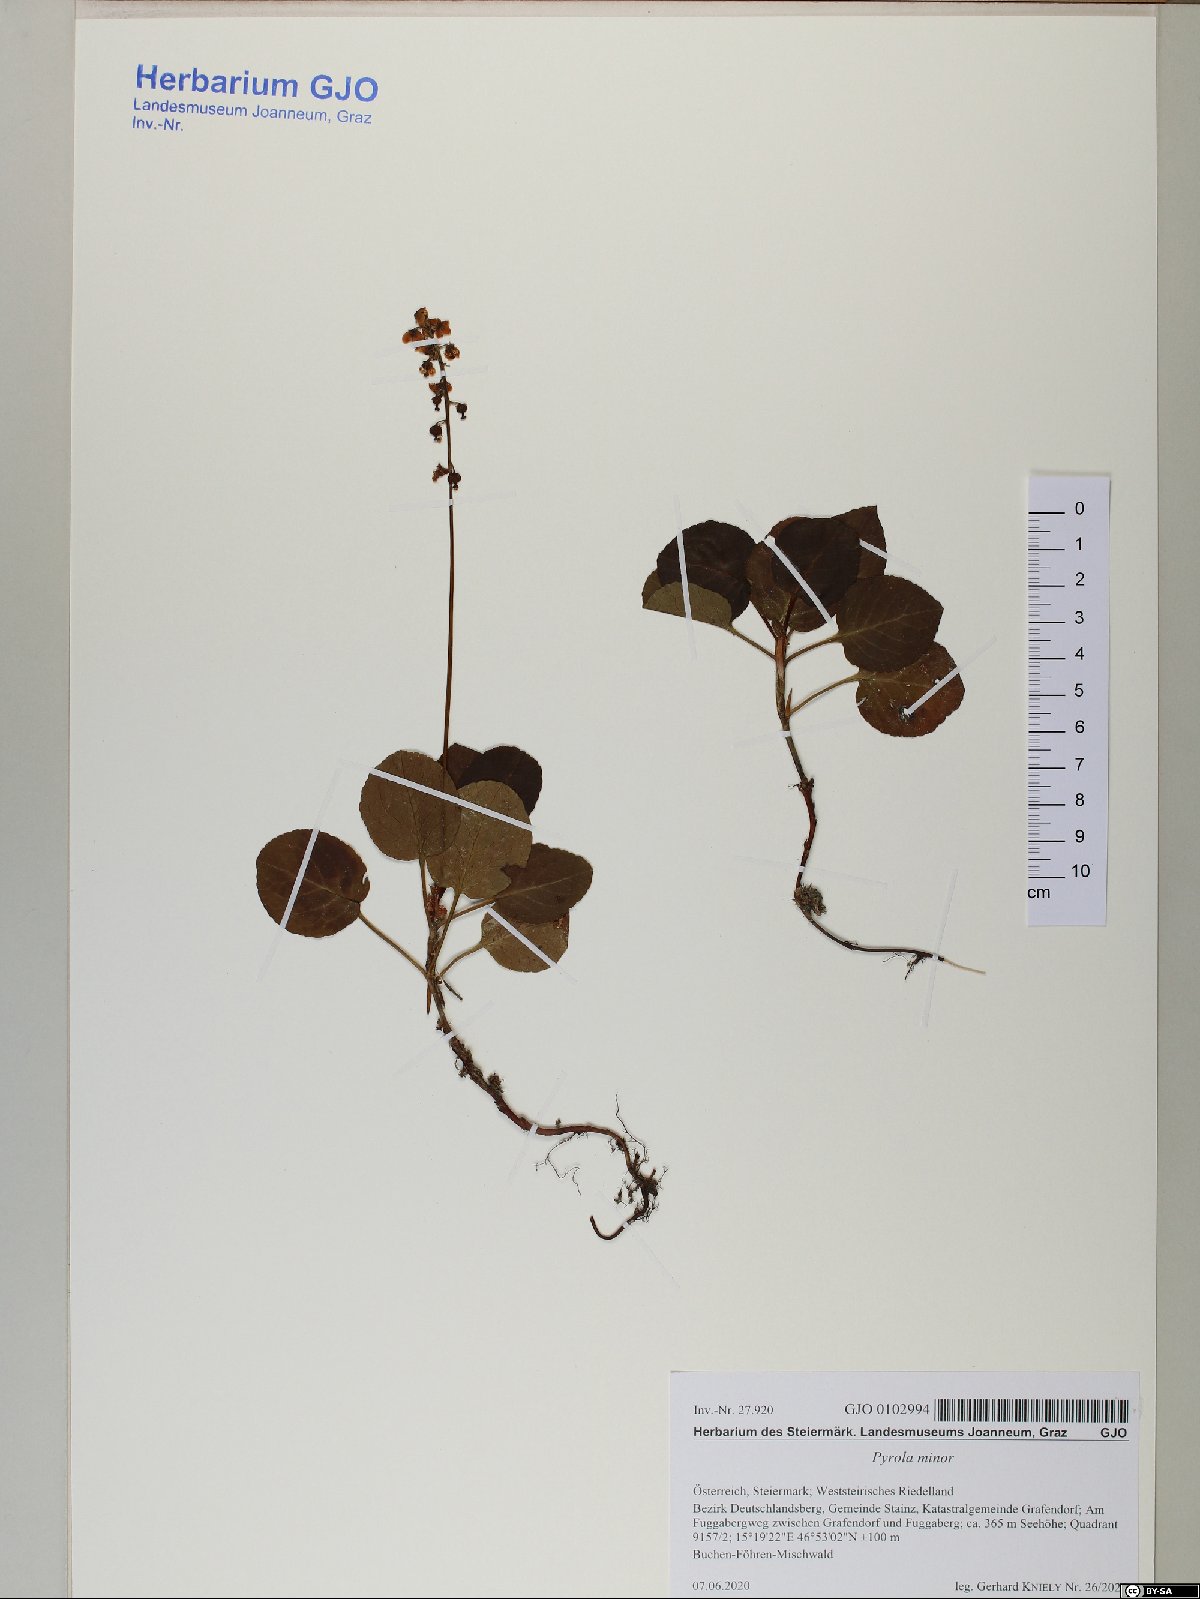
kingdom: Plantae
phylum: Tracheophyta
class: Magnoliopsida
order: Ericales
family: Ericaceae
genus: Pyrola
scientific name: Pyrola minor
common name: Common wintergreen
